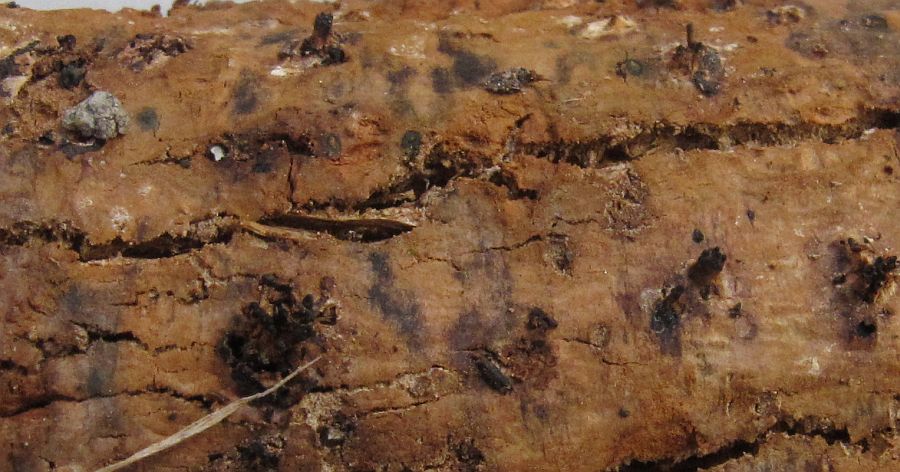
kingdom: Fungi
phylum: Ascomycota
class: Sordariomycetes
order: Diaporthales
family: Valsaceae
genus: Amphiporthe
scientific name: Amphiporthe tiliae
